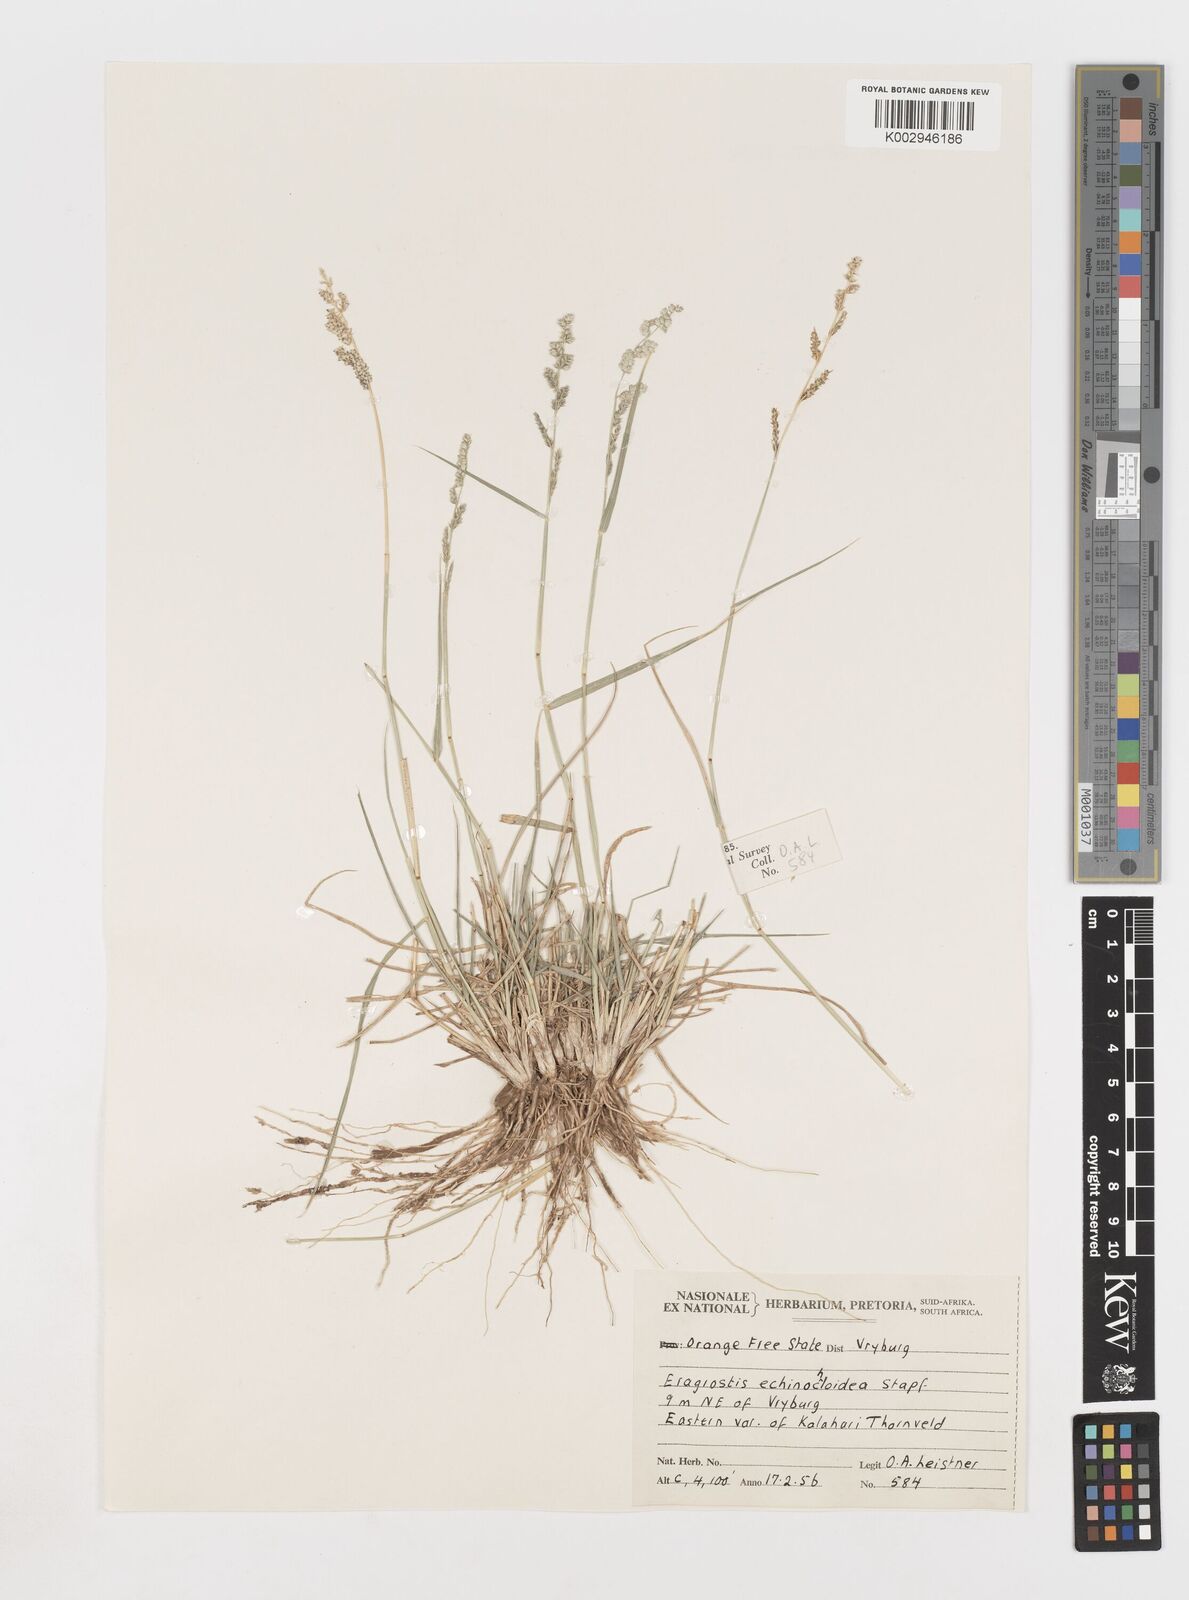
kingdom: Plantae
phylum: Tracheophyta
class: Liliopsida
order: Poales
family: Poaceae
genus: Eragrostis
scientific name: Eragrostis echinochloidea
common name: African lovegrass
